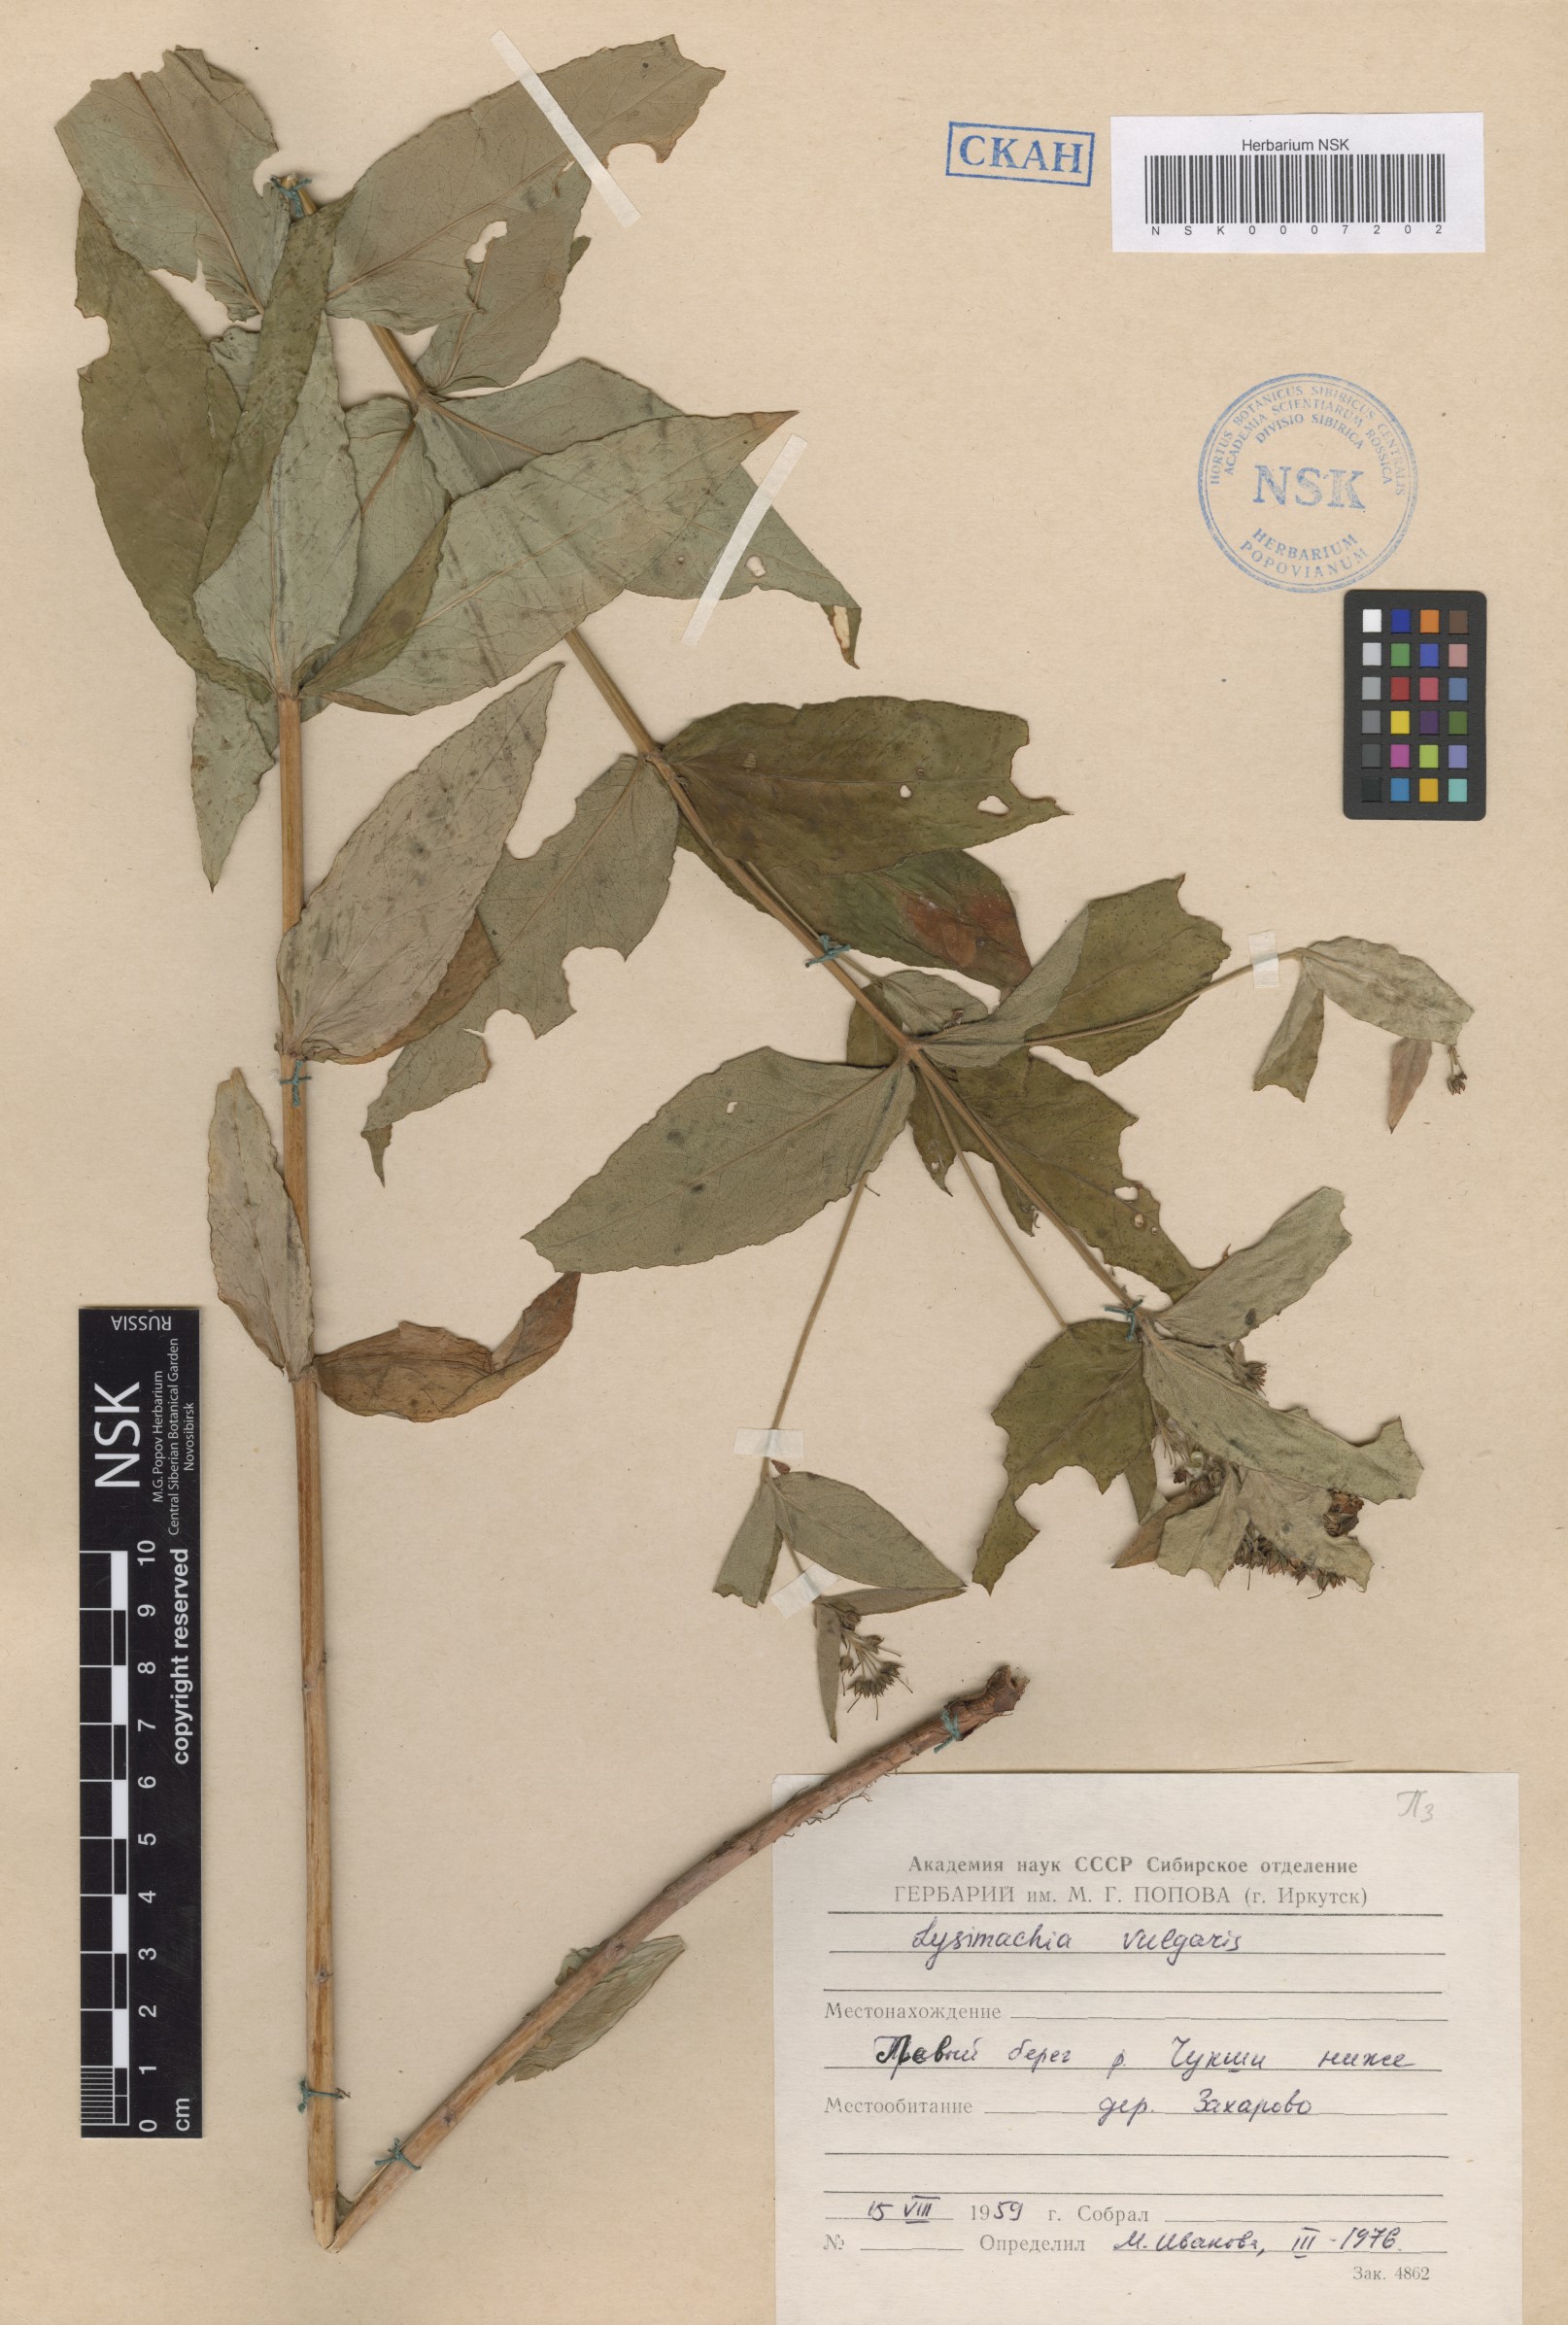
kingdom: Plantae
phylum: Tracheophyta
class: Magnoliopsida
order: Ericales
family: Primulaceae
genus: Lysimachia
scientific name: Lysimachia vulgaris
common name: Yellow loosestrife
